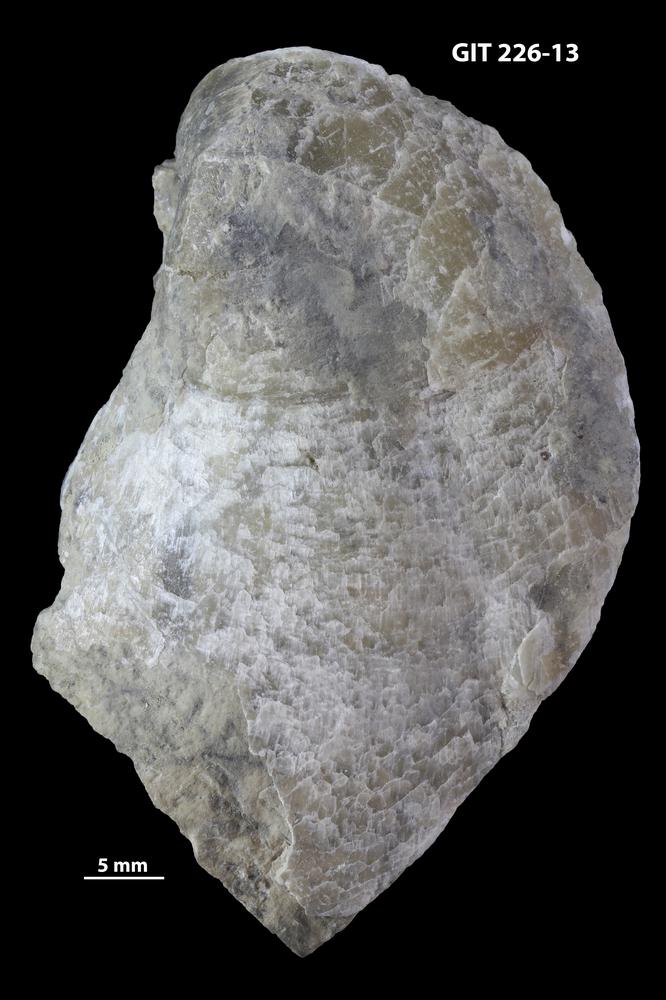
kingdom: Animalia
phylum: Brachiopoda
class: Rhynchonellata
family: Virgianidae
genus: Holorhynchus
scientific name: Holorhynchus giganteus
